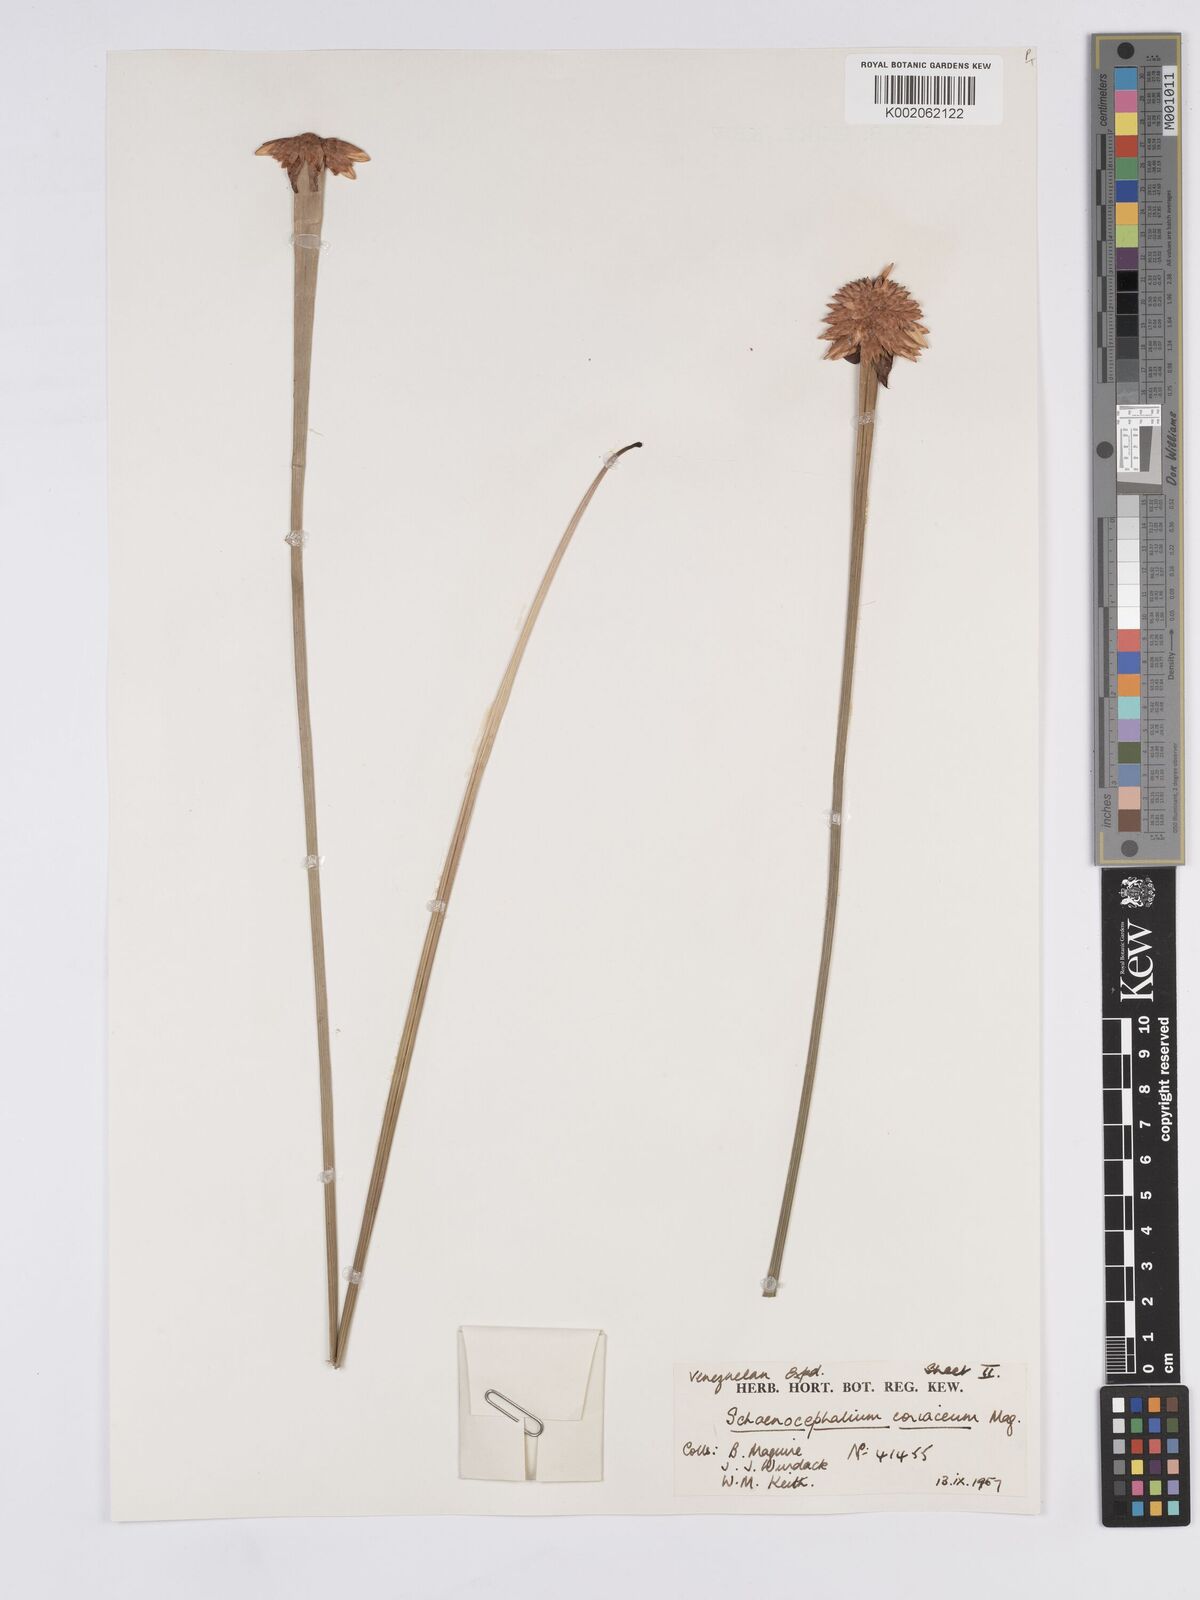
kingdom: Plantae
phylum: Tracheophyta
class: Liliopsida
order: Poales
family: Rapateaceae
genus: Schoenocephalium
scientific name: Schoenocephalium cucullatum
